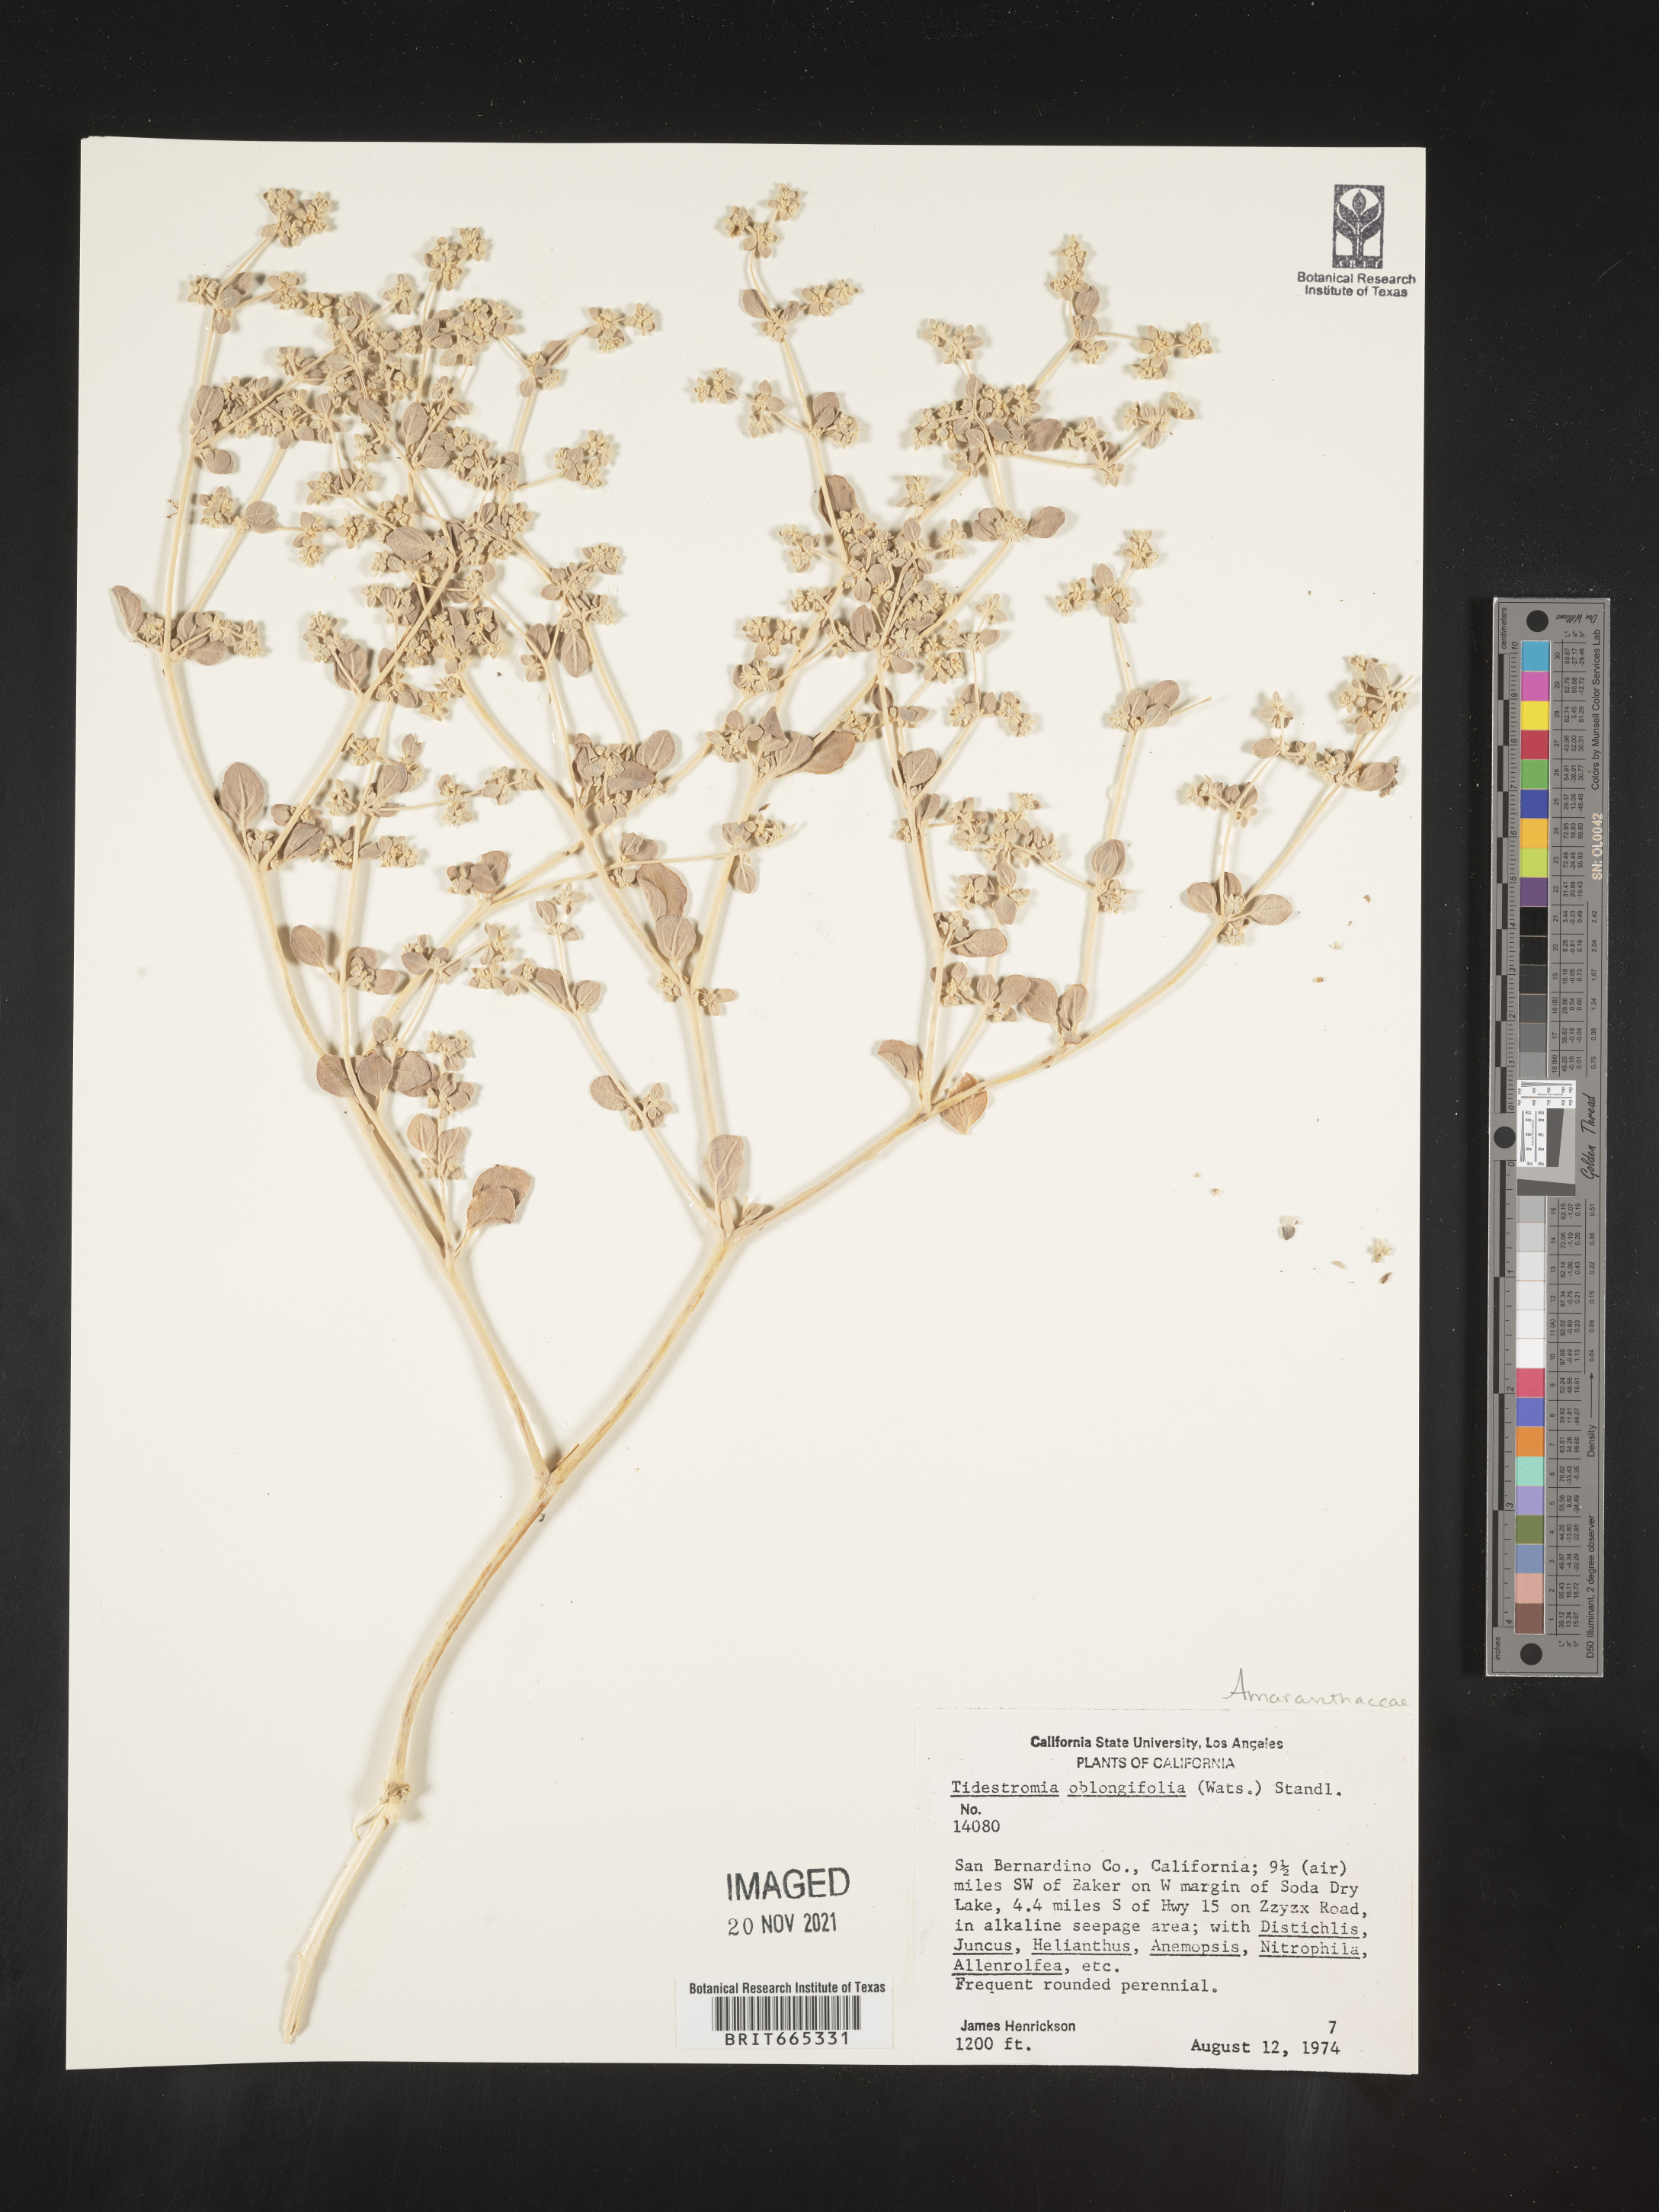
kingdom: Plantae
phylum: Tracheophyta
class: Magnoliopsida
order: Caryophyllales
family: Amaranthaceae
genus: Tidestromia
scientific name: Tidestromia suffruticosa
